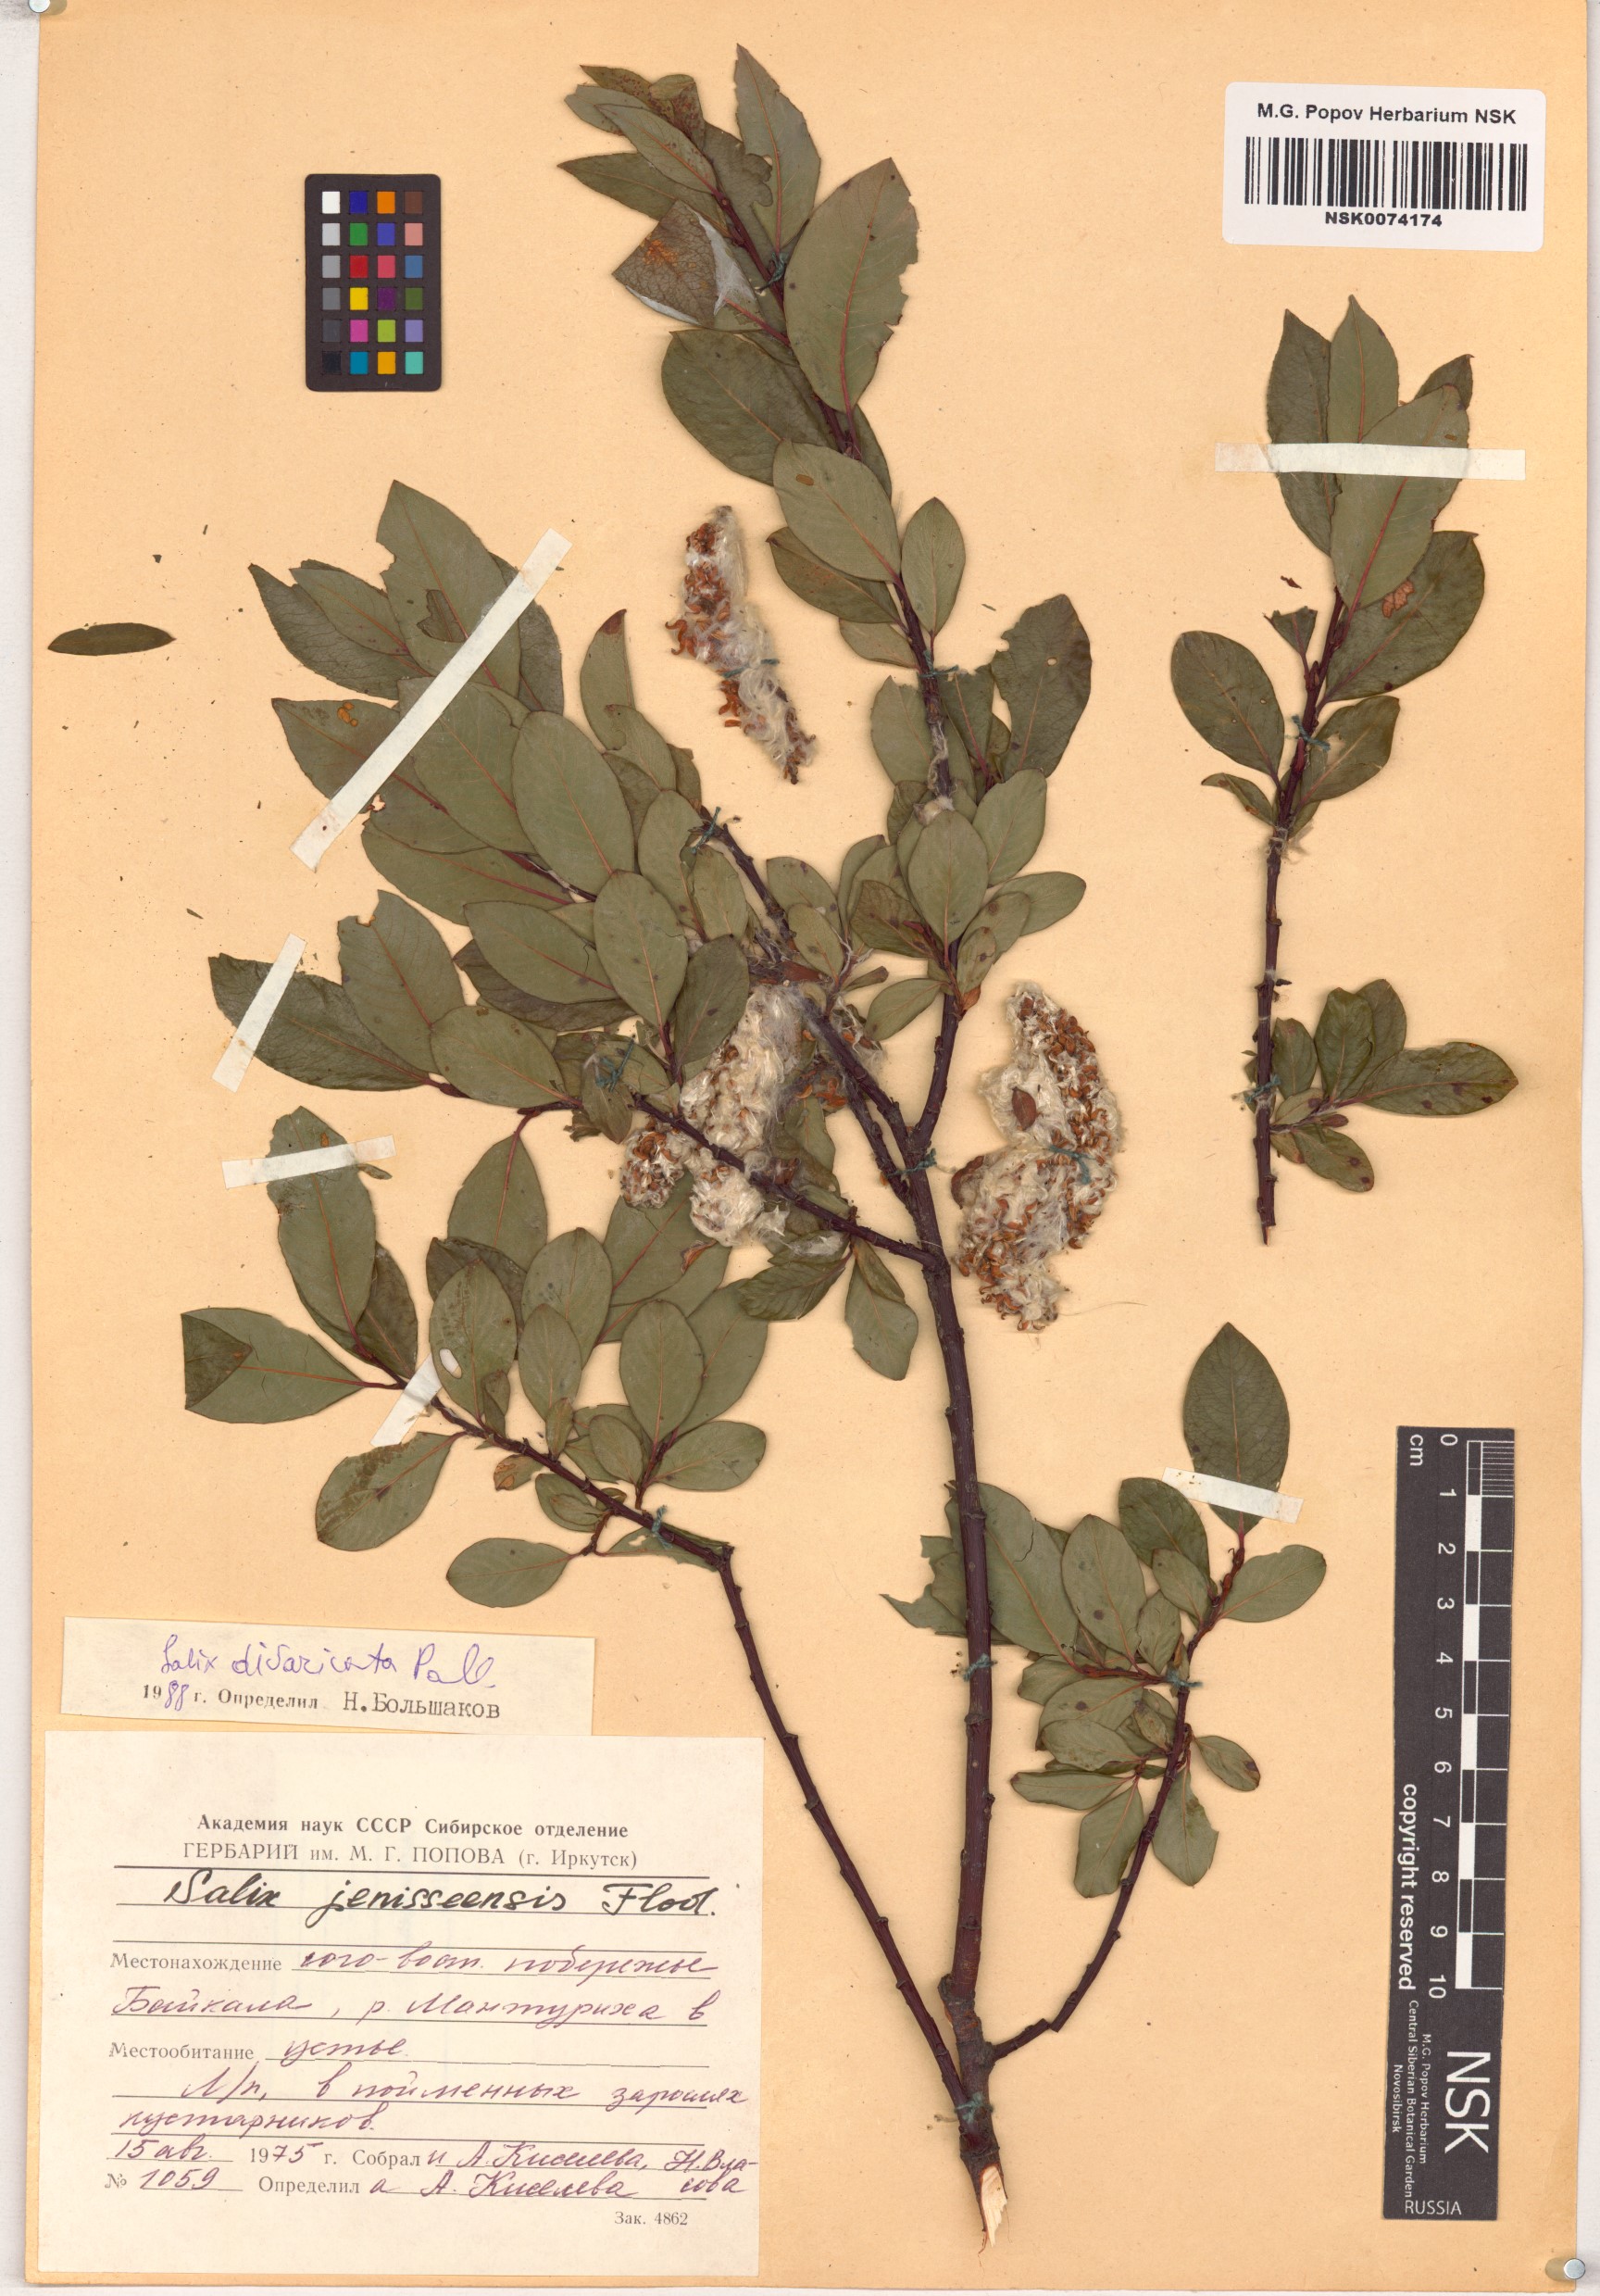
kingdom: Plantae
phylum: Tracheophyta
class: Magnoliopsida
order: Malpighiales
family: Salicaceae
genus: Salix
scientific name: Salix divaricata
